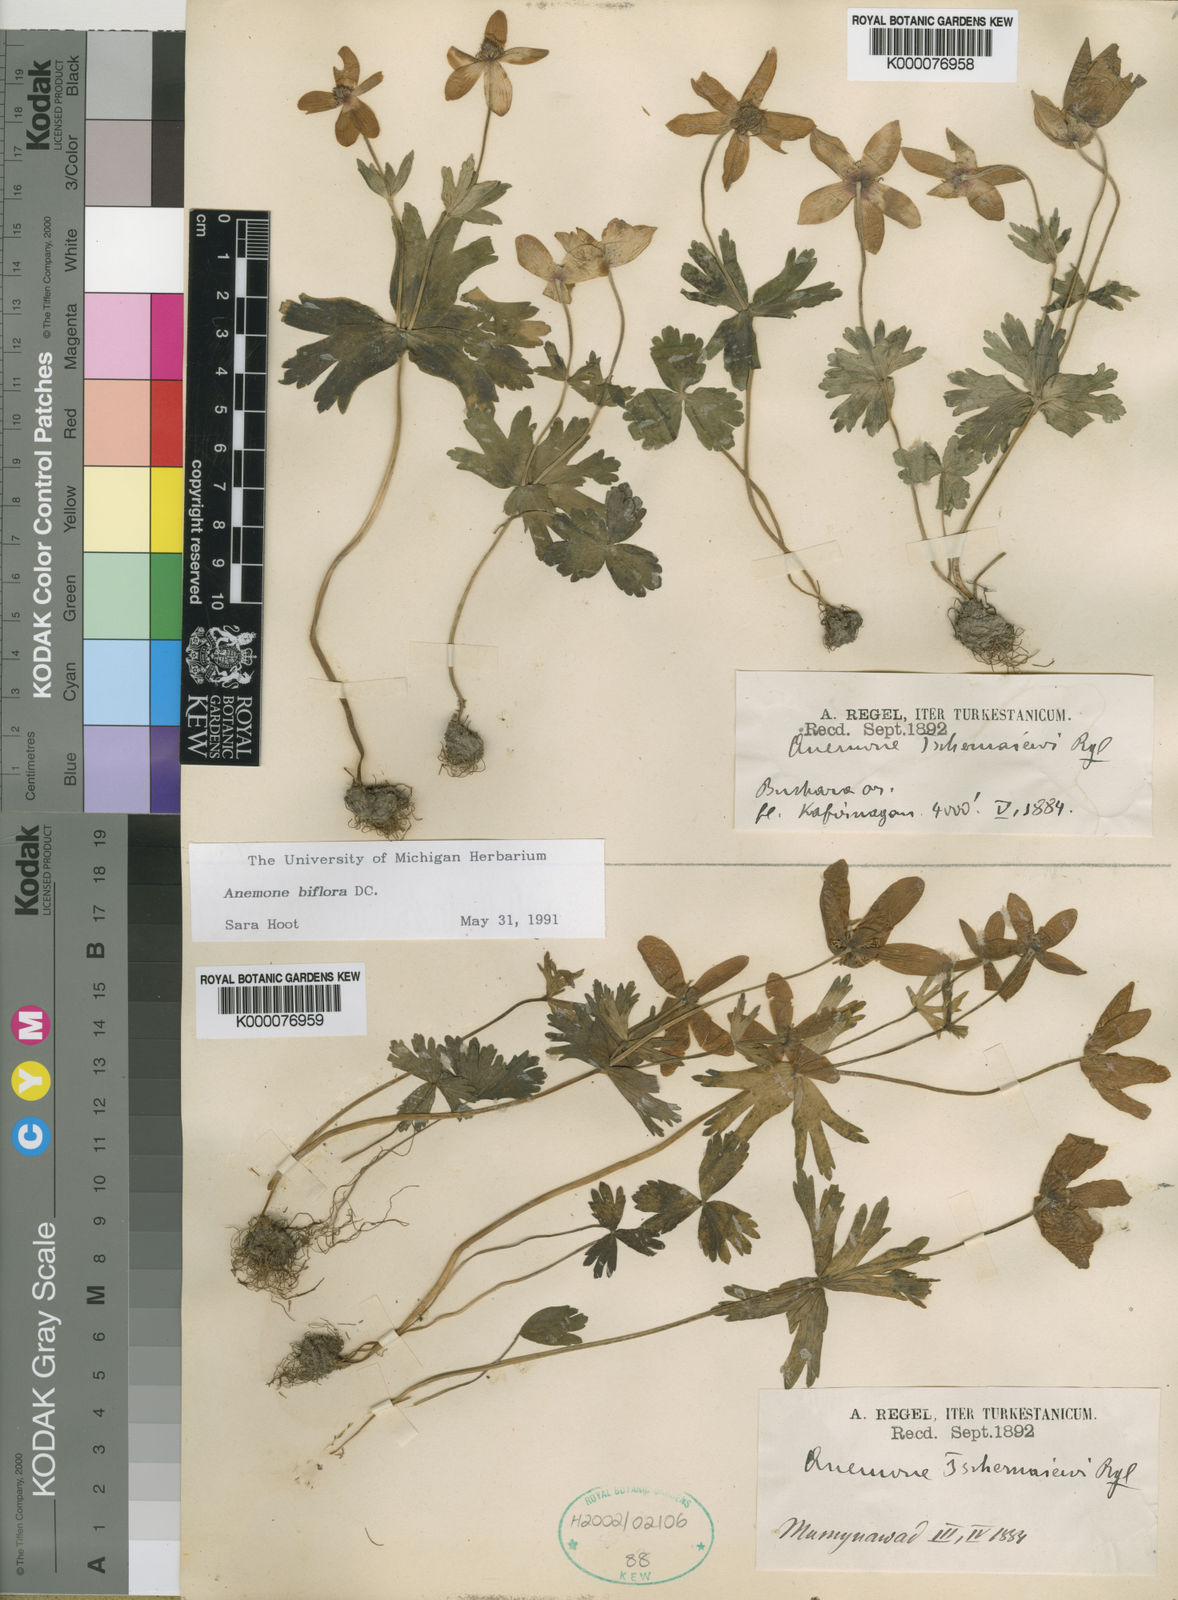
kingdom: Plantae
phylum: Tracheophyta
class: Magnoliopsida
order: Ranunculales
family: Ranunculaceae
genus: Anemone
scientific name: Anemone biflora
